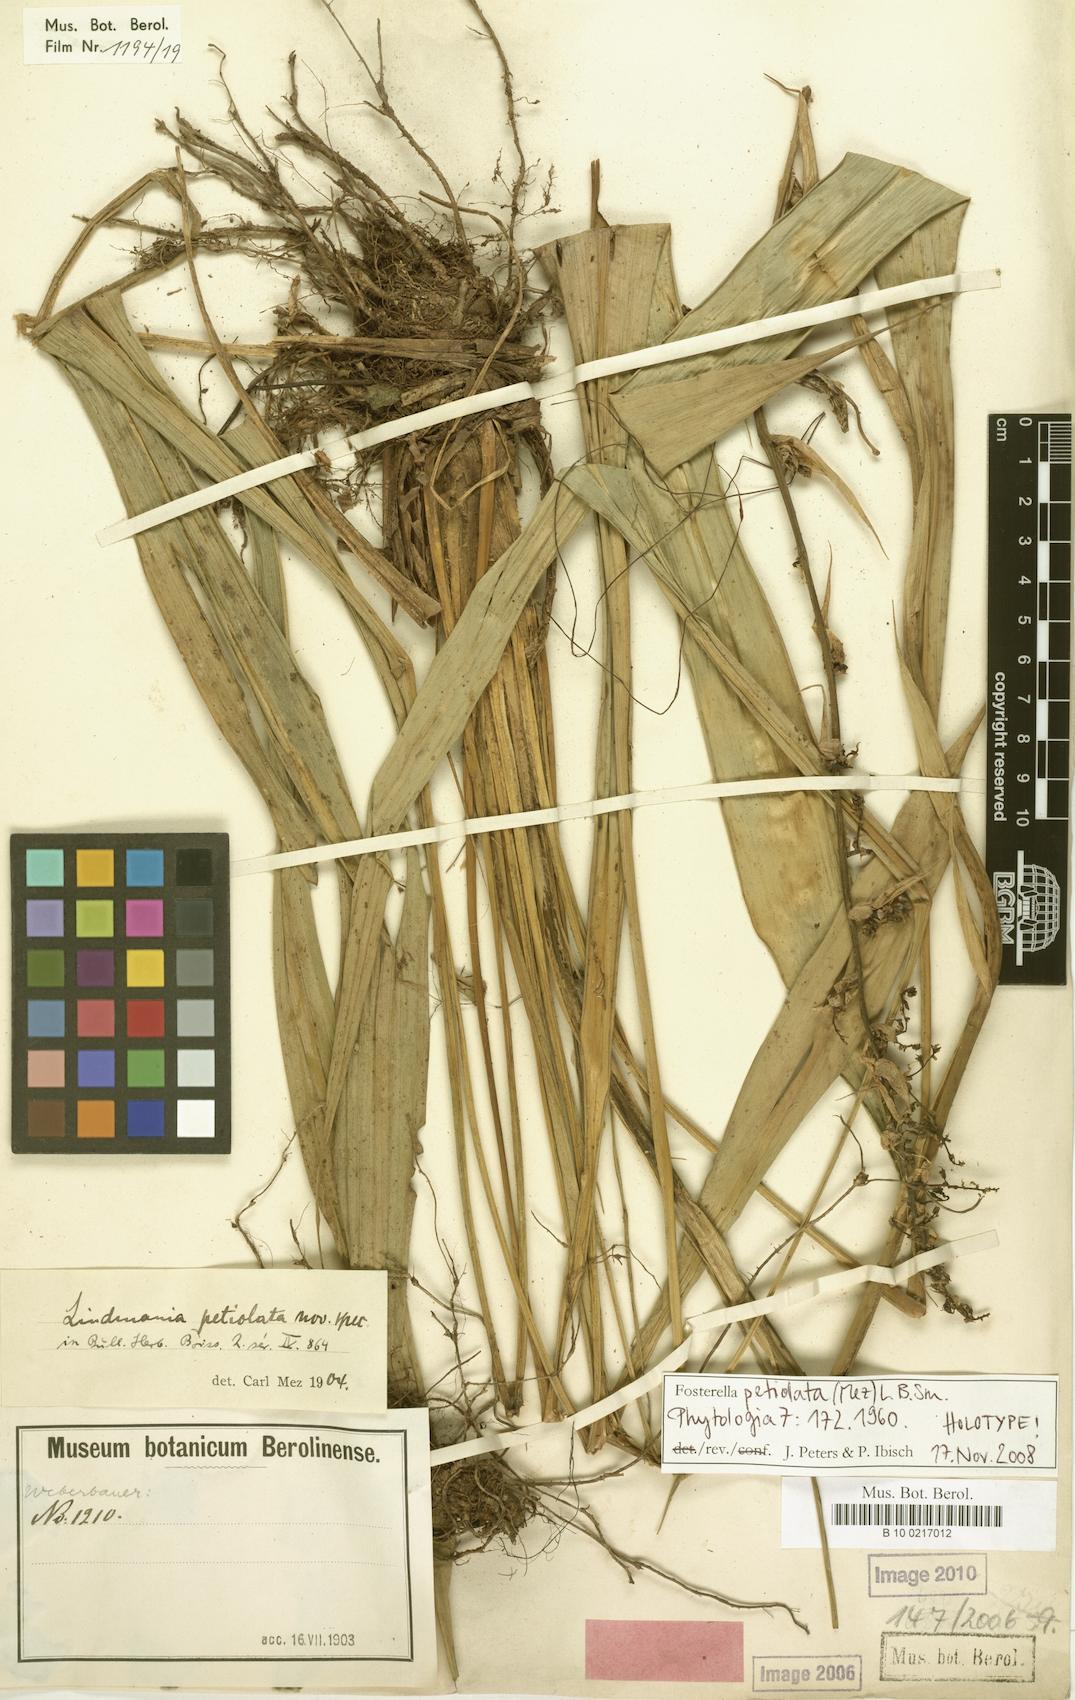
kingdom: Plantae
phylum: Tracheophyta
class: Liliopsida
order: Poales
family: Bromeliaceae
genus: Fosterella
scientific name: Fosterella petiolata
